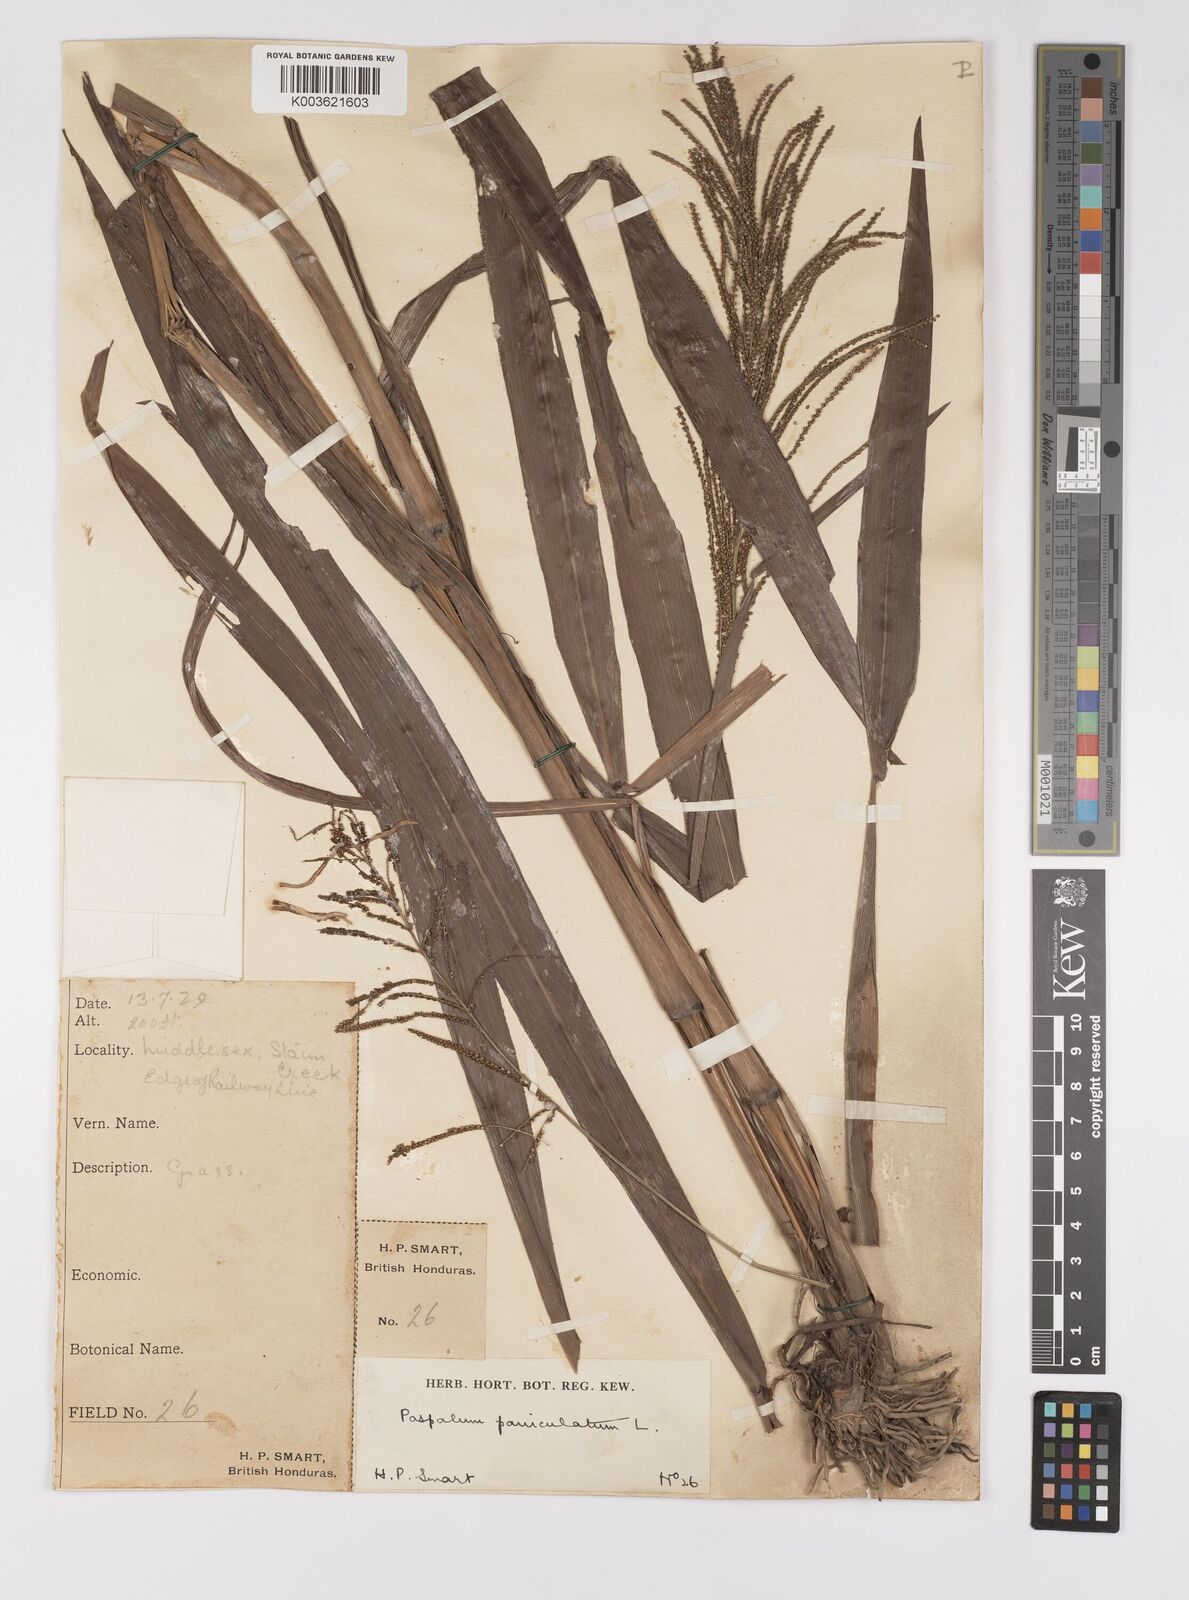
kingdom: Plantae
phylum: Tracheophyta
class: Liliopsida
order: Poales
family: Poaceae
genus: Paspalum
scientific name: Paspalum paniculatum
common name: Arrocillo
